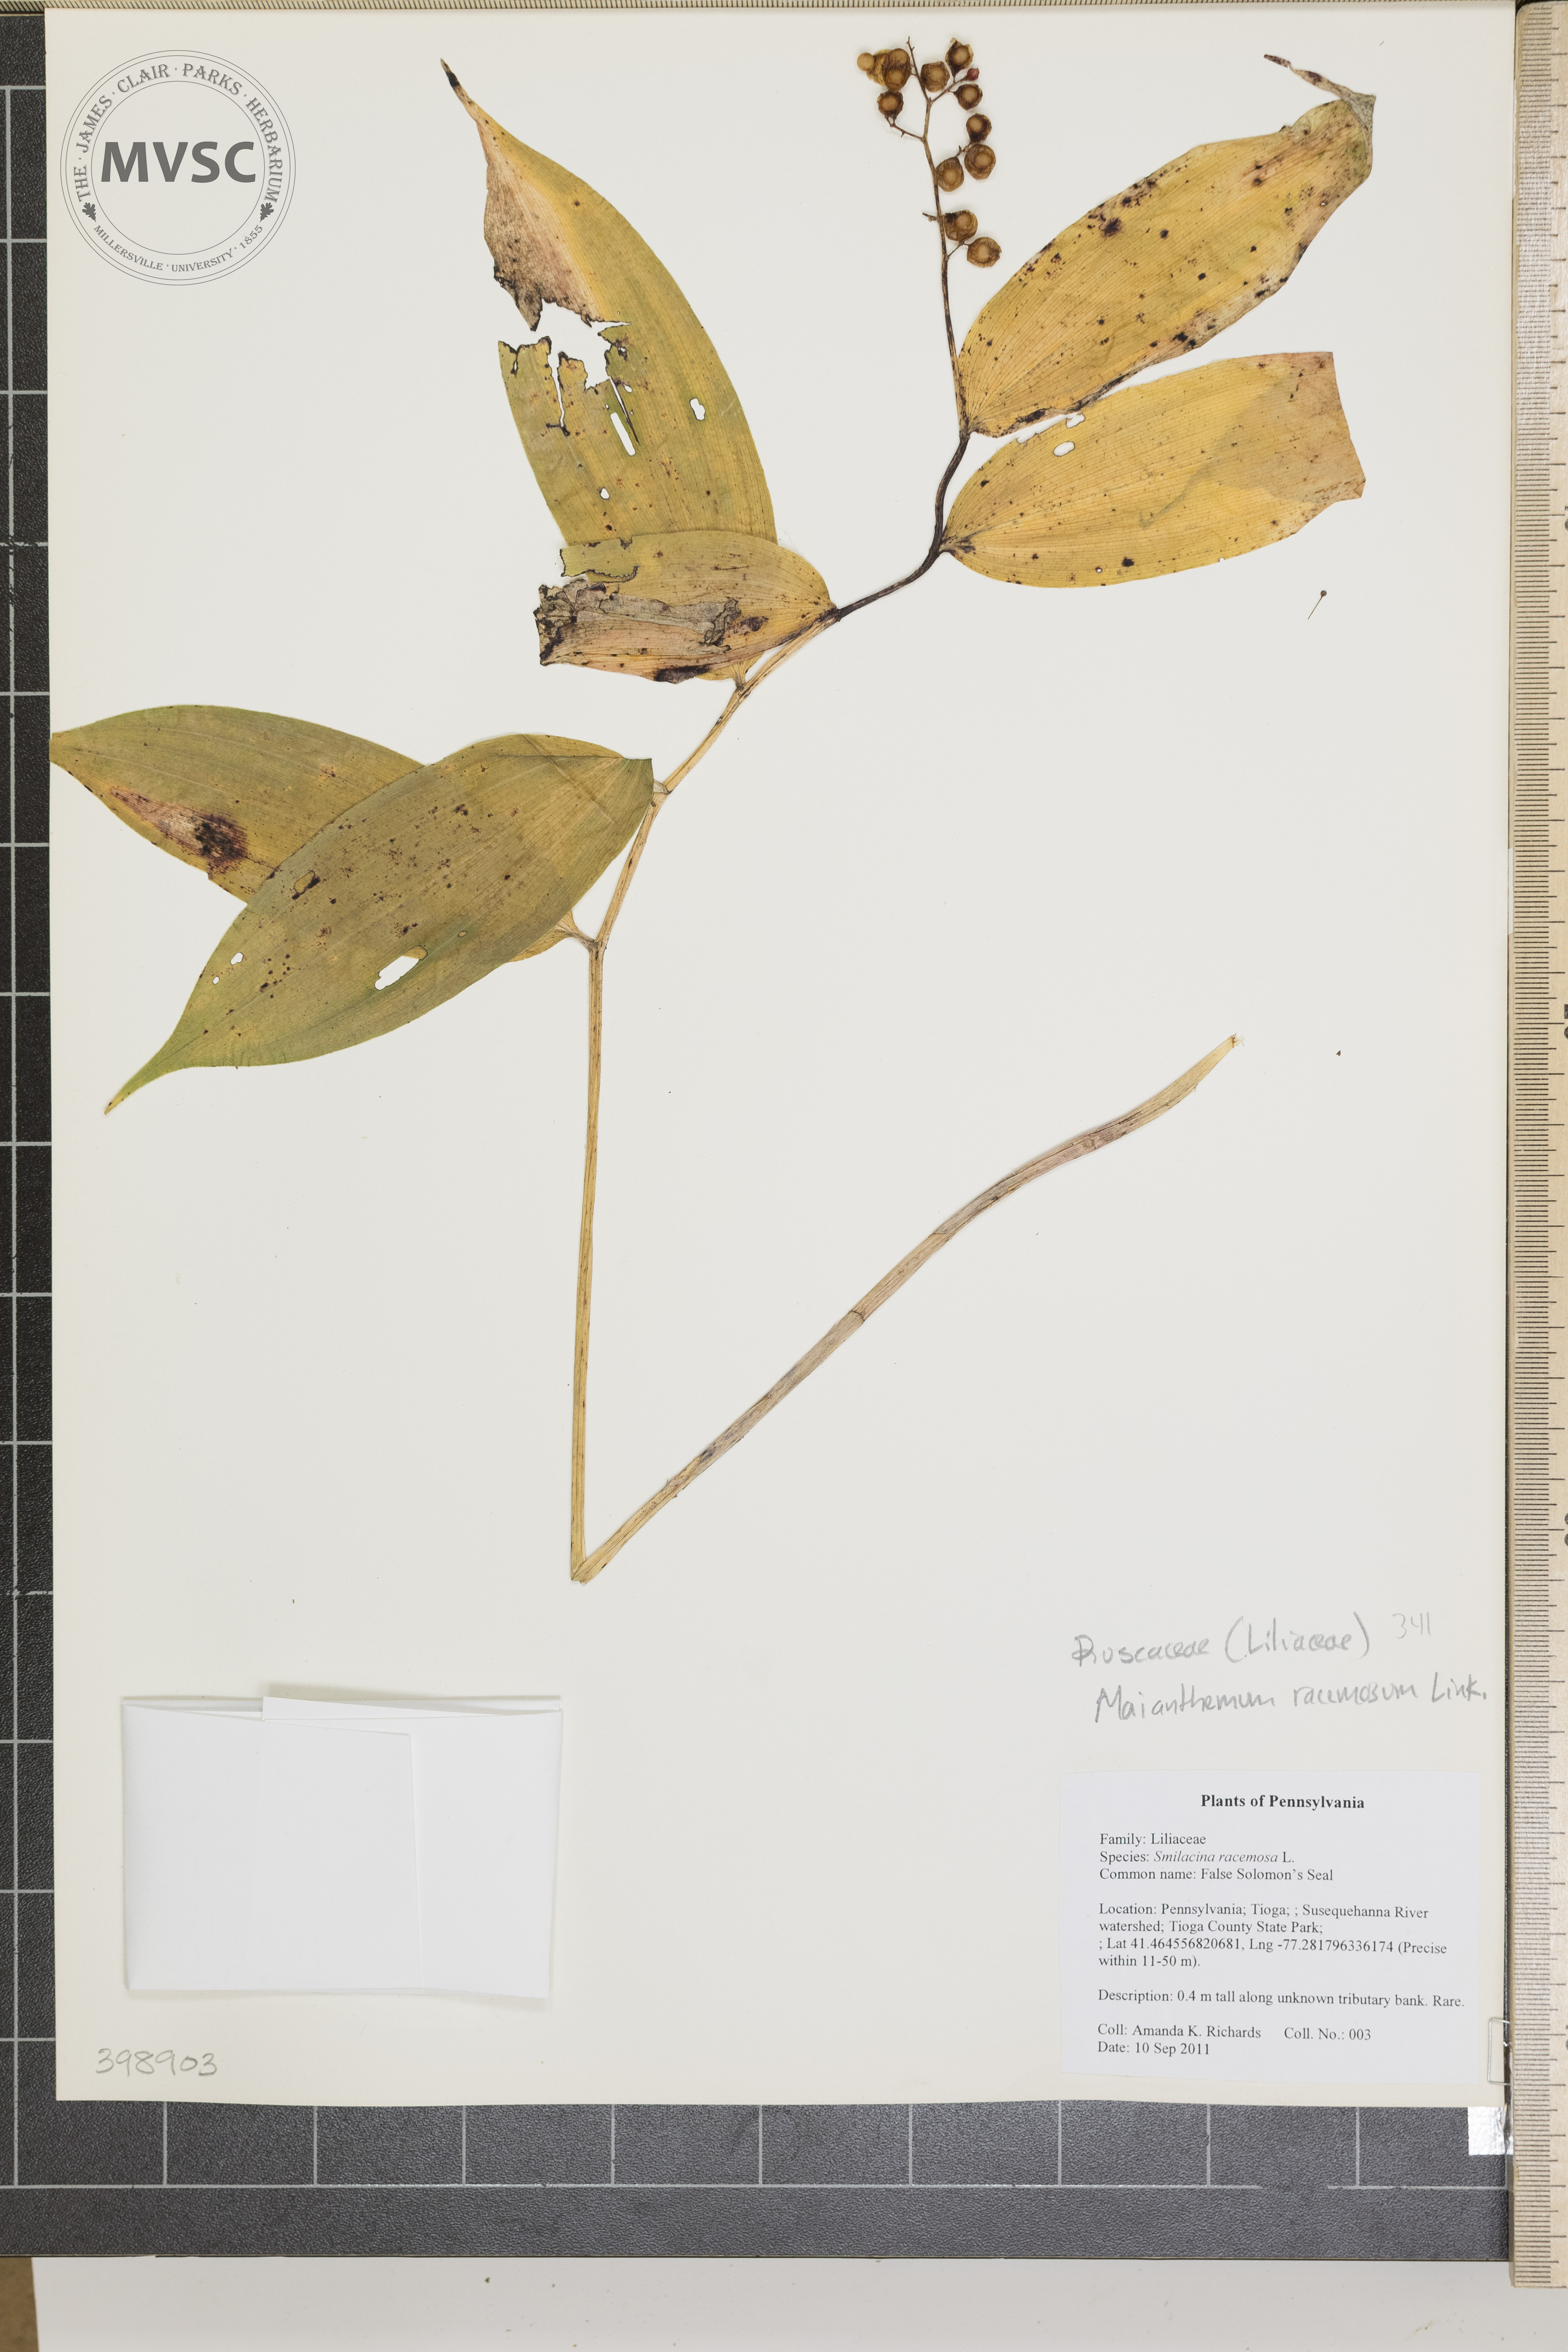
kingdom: Plantae
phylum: Tracheophyta
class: Liliopsida
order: Asparagales
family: Asparagaceae
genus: Maianthemum
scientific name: Maianthemum racemosum
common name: False solomon's-seal
